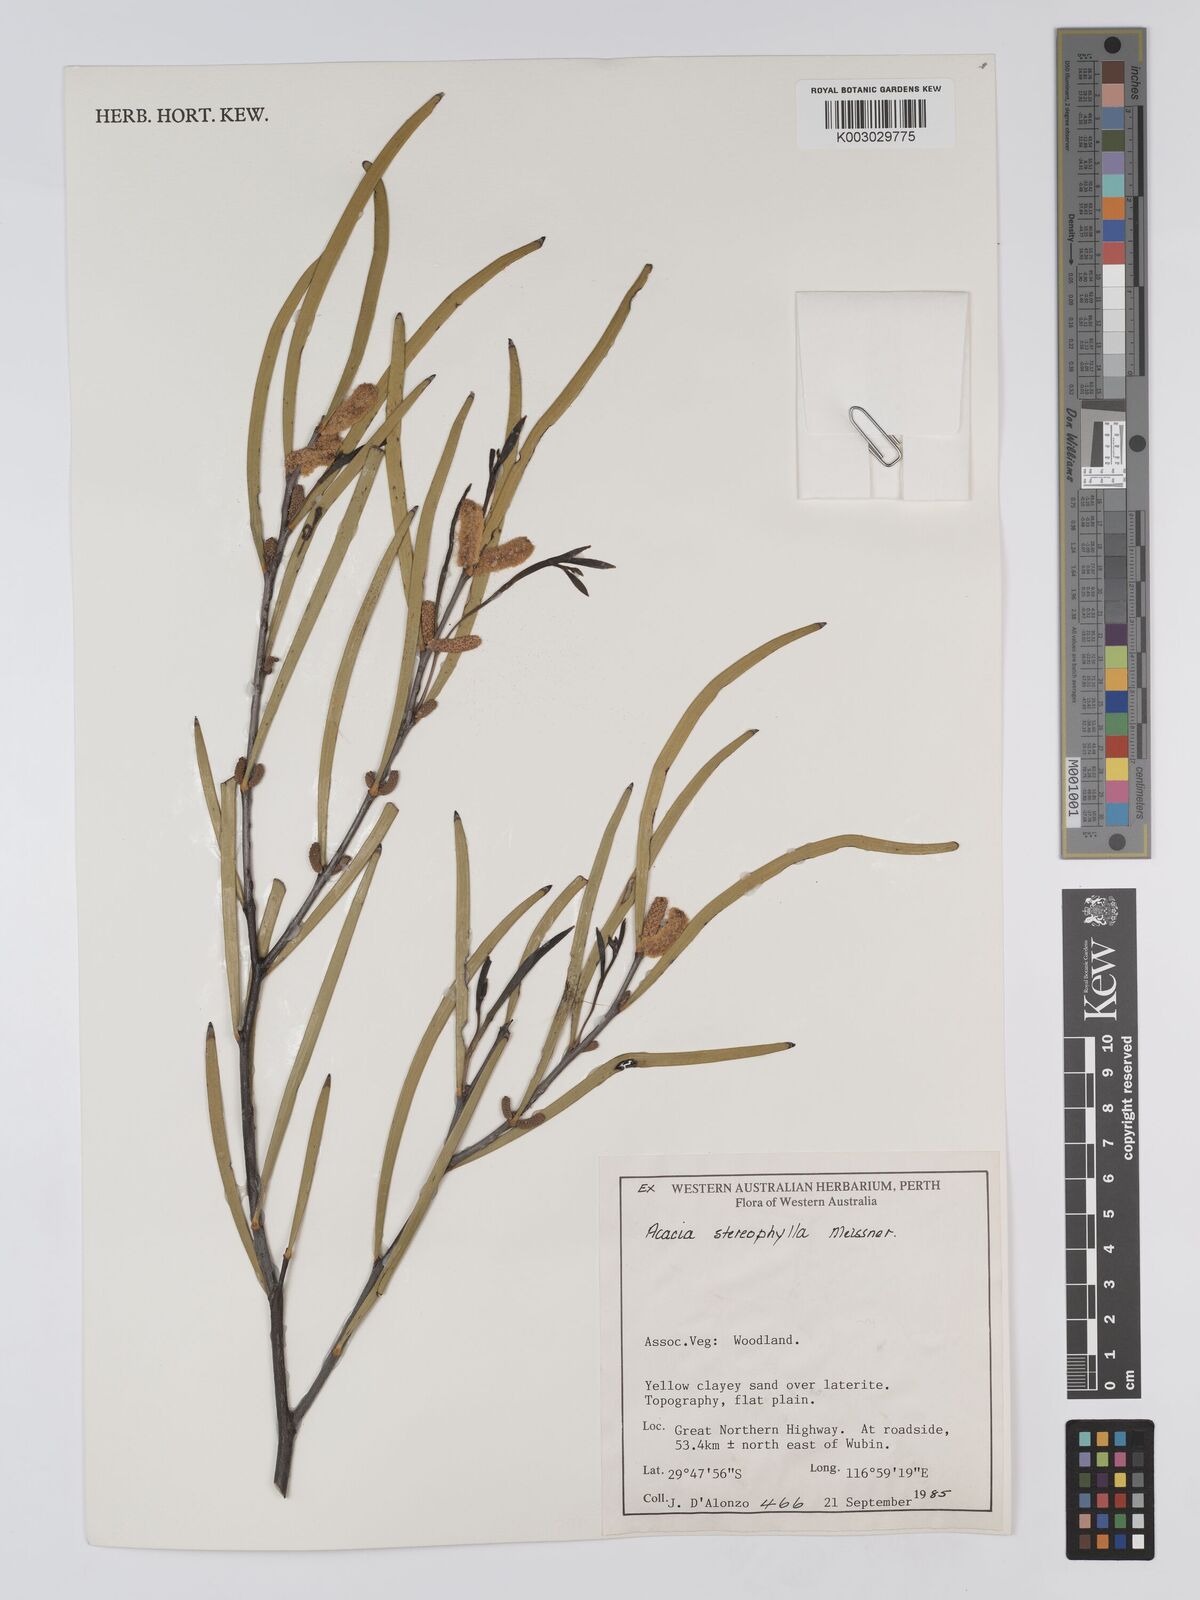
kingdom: Plantae
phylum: Tracheophyta
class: Magnoliopsida
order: Fabales
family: Fabaceae
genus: Acacia
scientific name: Acacia stereophylla
